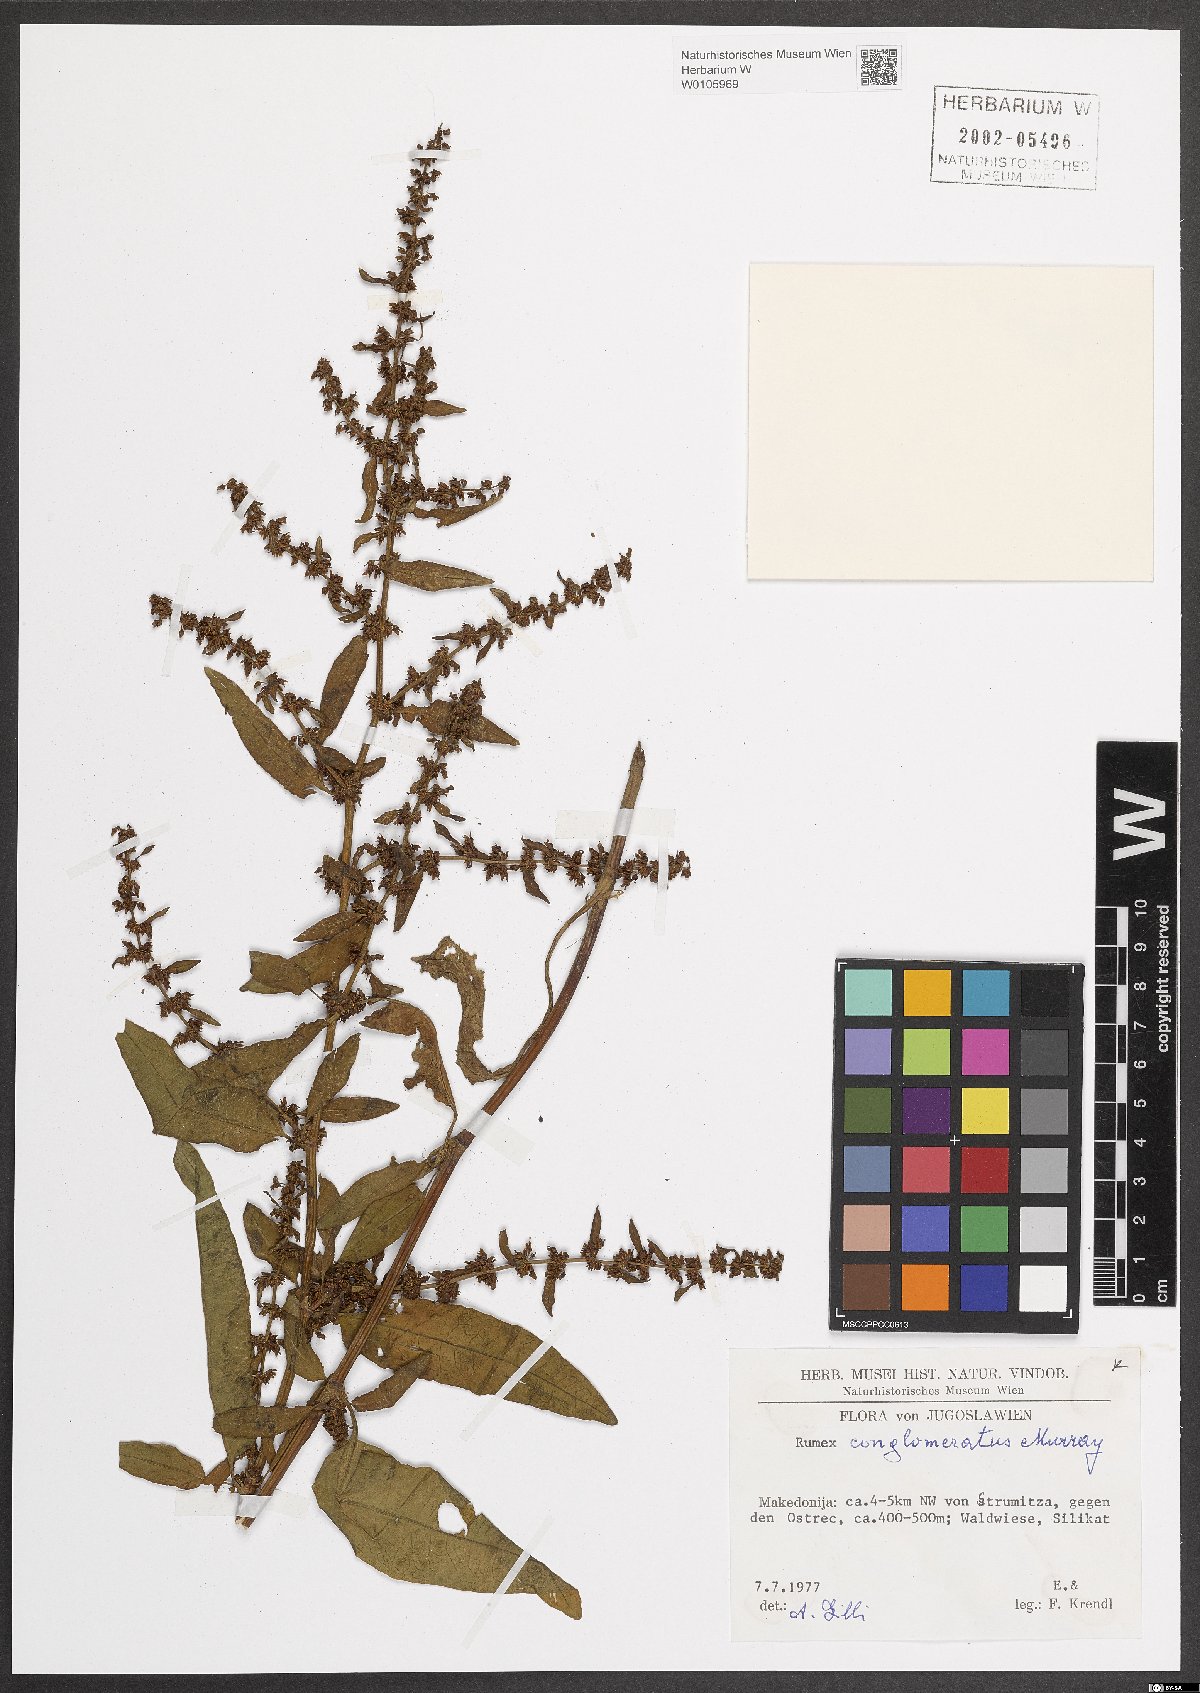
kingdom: Plantae
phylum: Tracheophyta
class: Magnoliopsida
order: Caryophyllales
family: Polygonaceae
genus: Rumex
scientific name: Rumex conglomeratus
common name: Clustered dock
